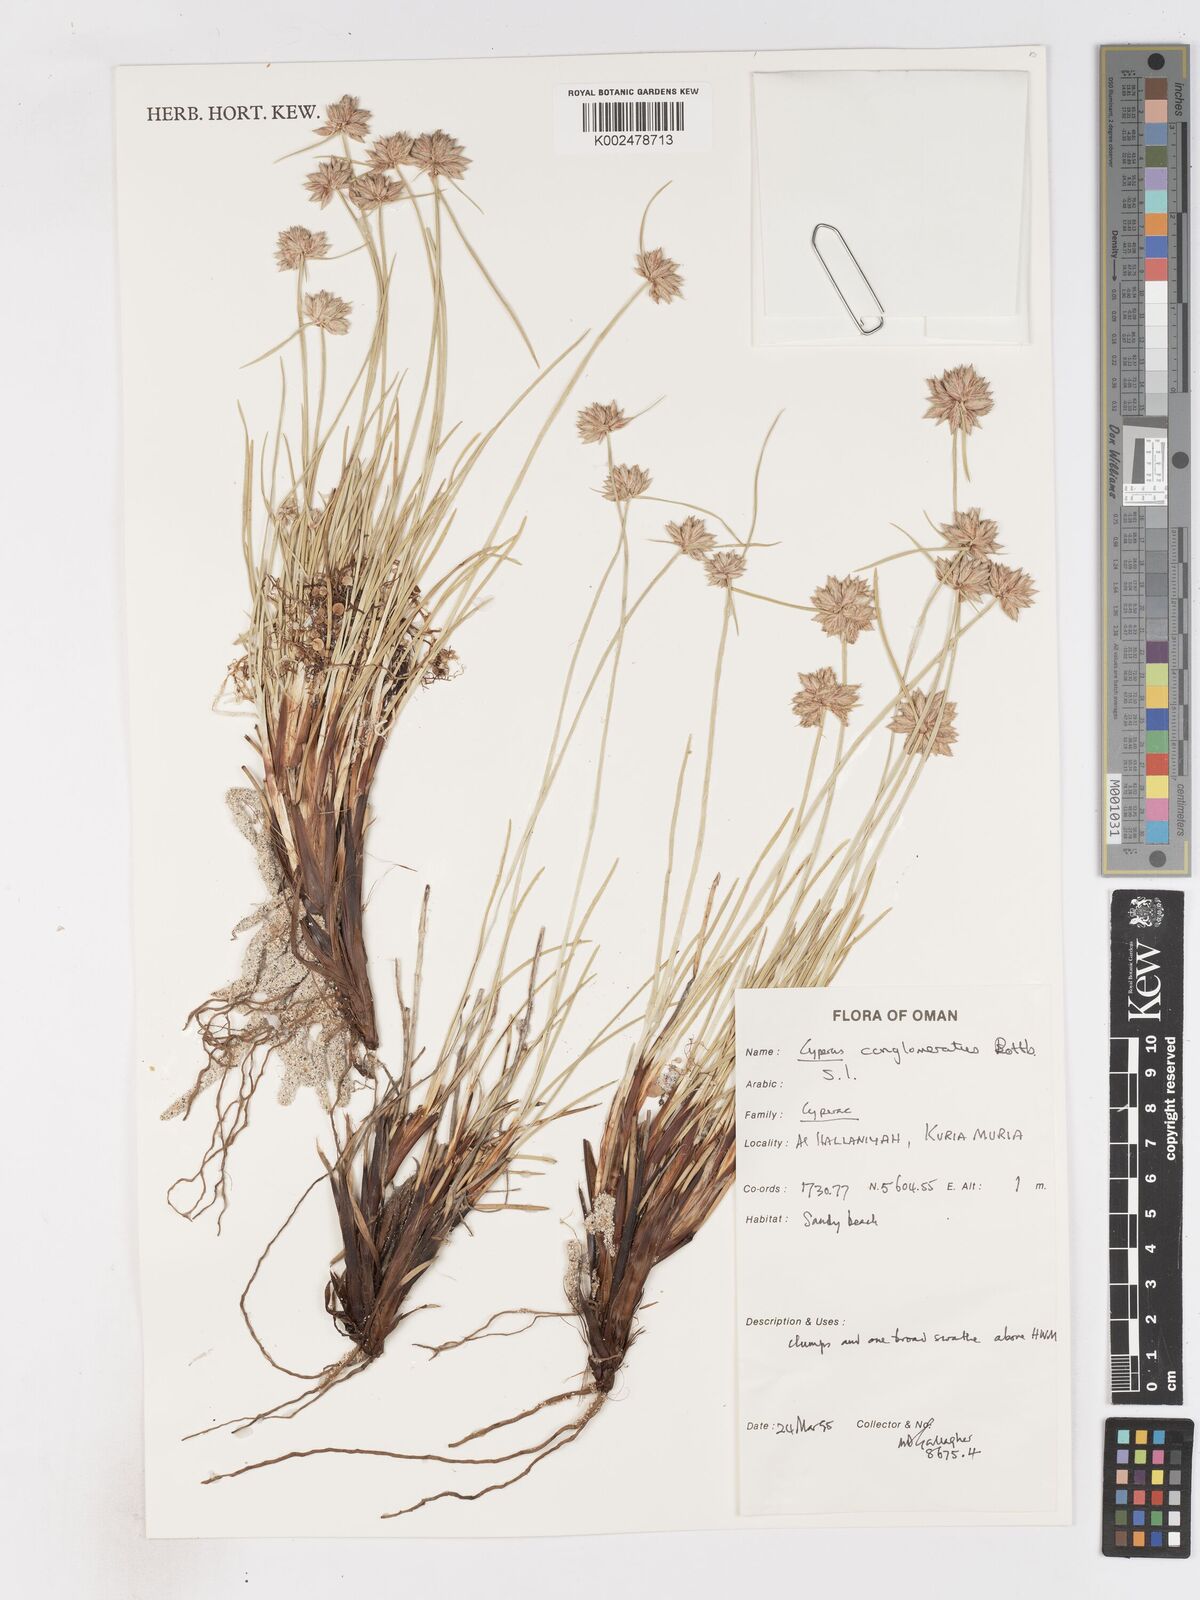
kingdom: Plantae
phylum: Tracheophyta
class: Liliopsida
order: Poales
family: Cyperaceae
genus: Cyperus
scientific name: Cyperus conglomeratus
